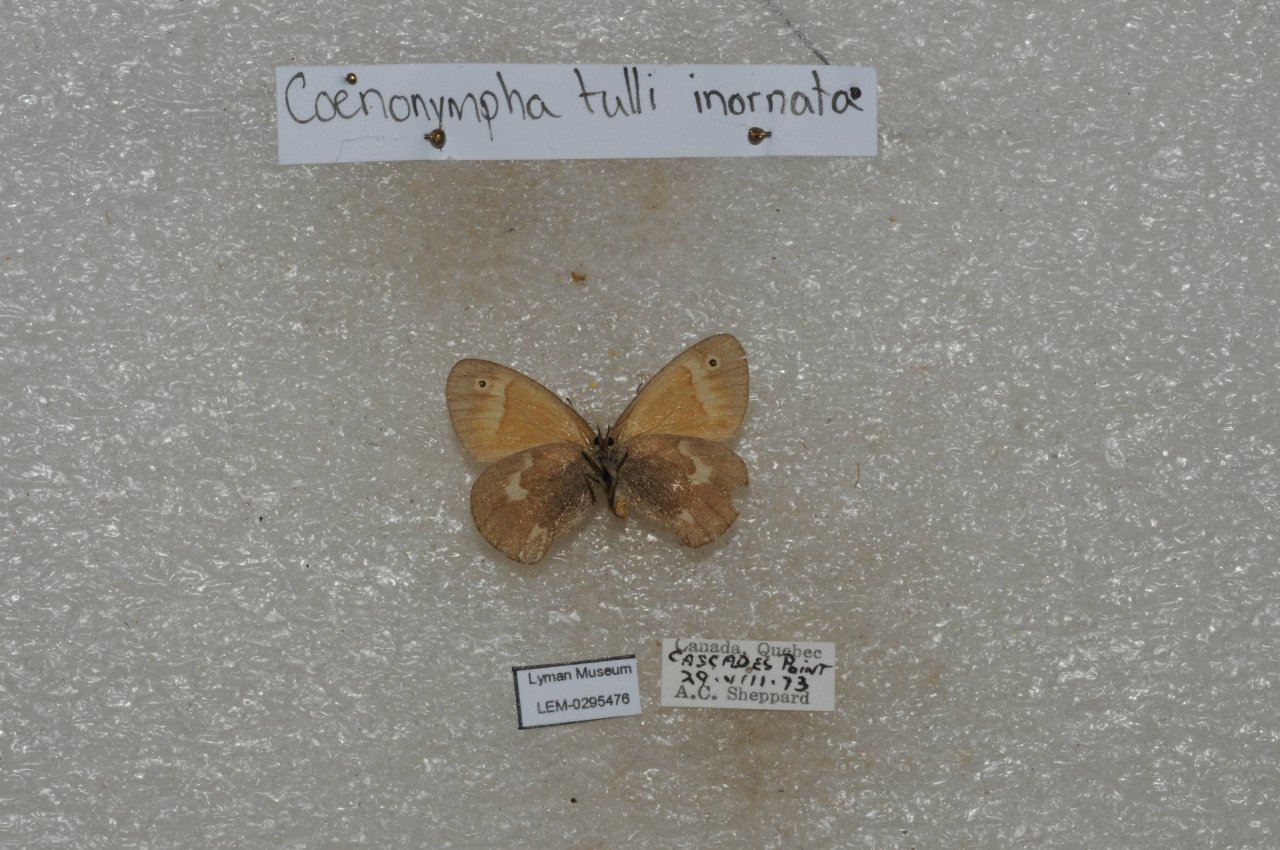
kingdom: Animalia
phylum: Arthropoda
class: Insecta
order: Lepidoptera
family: Nymphalidae
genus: Coenonympha
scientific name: Coenonympha tullia
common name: Large Heath
